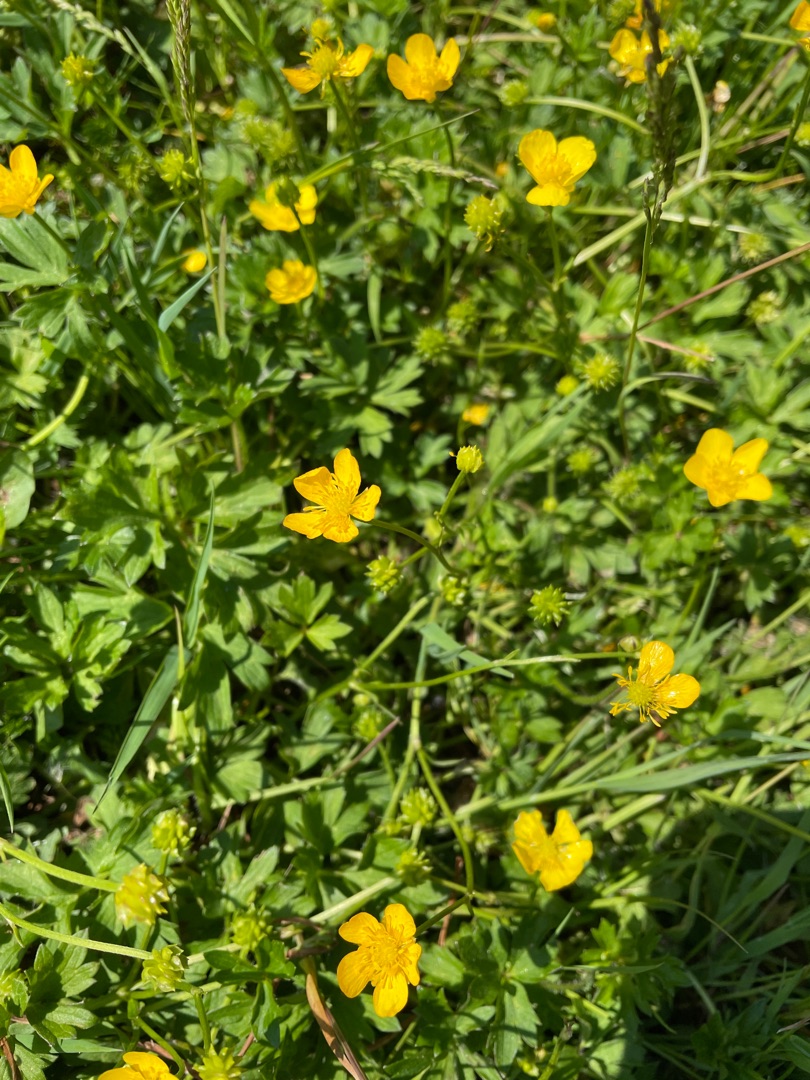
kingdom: Plantae
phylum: Tracheophyta
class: Magnoliopsida
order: Ranunculales
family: Ranunculaceae
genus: Ranunculus
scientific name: Ranunculus repens
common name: Lav ranunkel
